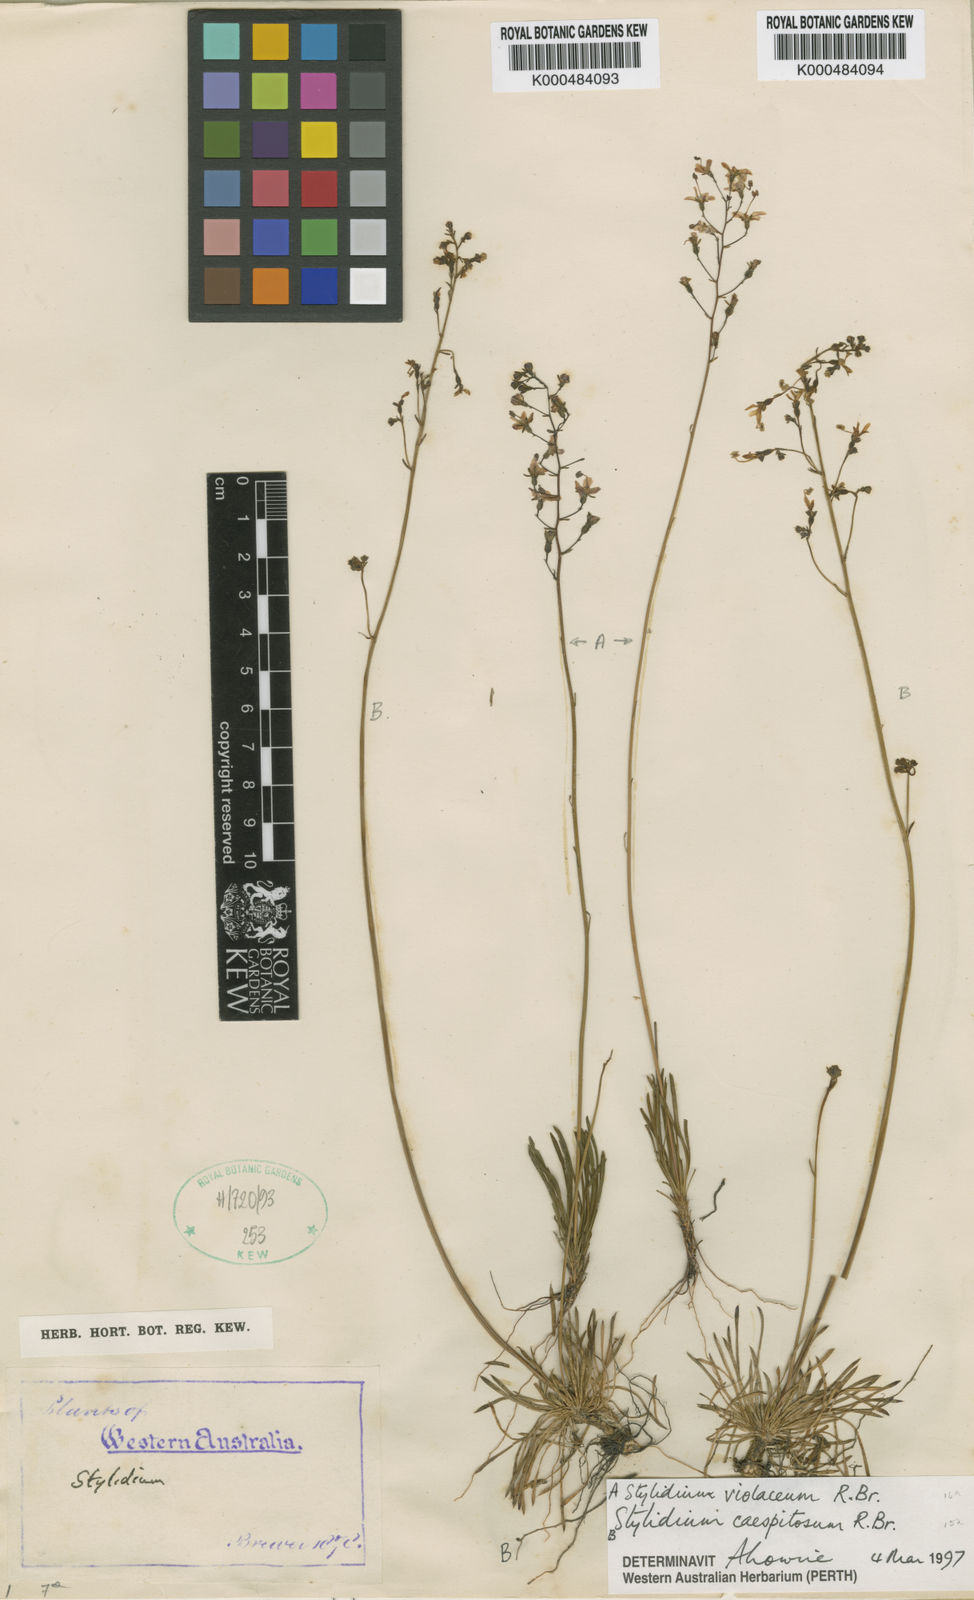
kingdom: Plantae
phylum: Tracheophyta
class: Magnoliopsida
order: Asterales
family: Stylidiaceae
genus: Stylidium
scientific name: Stylidium caespitosum
